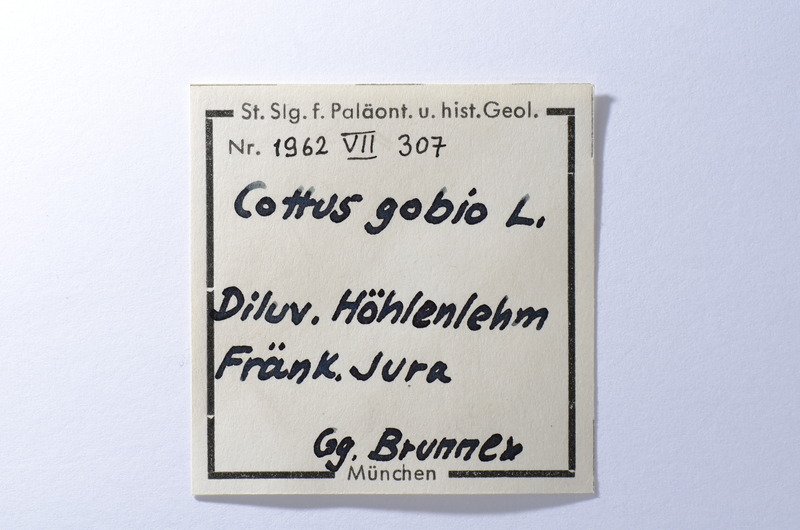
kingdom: Animalia
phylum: Chordata
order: Scorpaeniformes
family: Cottidae
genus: Cottus
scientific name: Cottus gobio
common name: Bullhead
